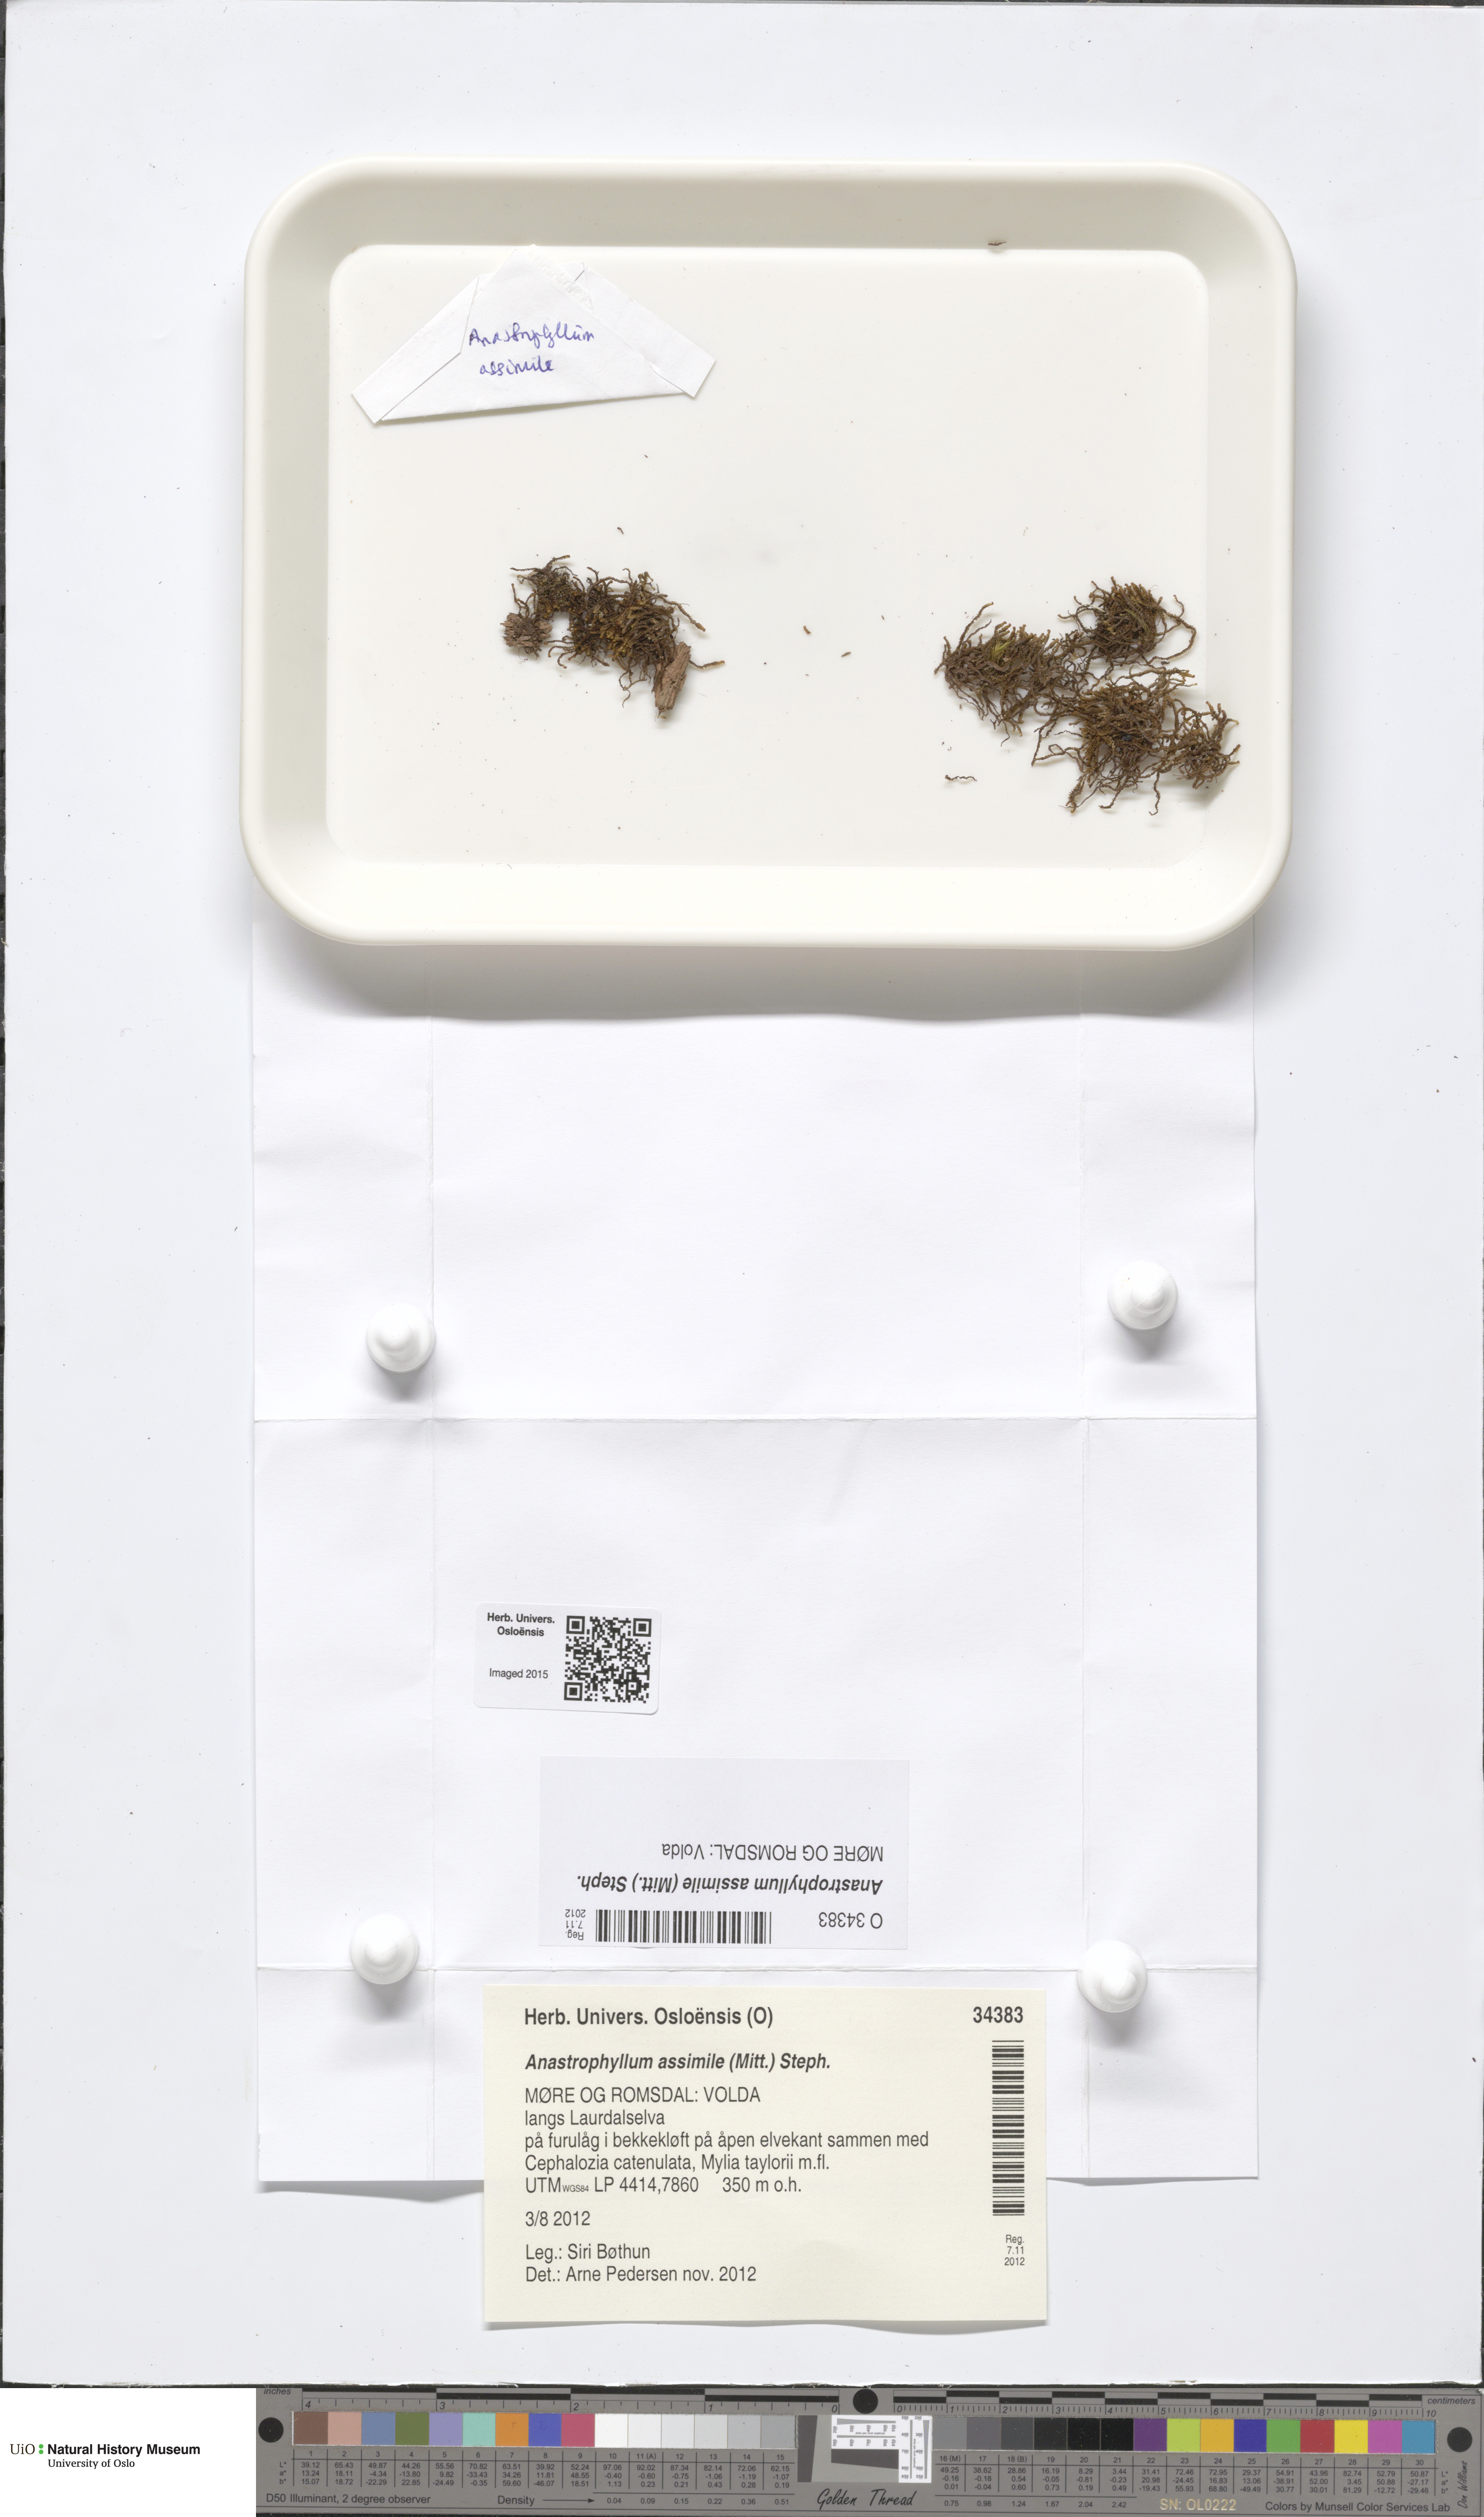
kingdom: Plantae
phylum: Marchantiophyta
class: Jungermanniopsida
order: Jungermanniales
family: Anastrophyllaceae
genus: Anastrophyllum
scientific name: Anastrophyllum assimile
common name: Similar notchwort
